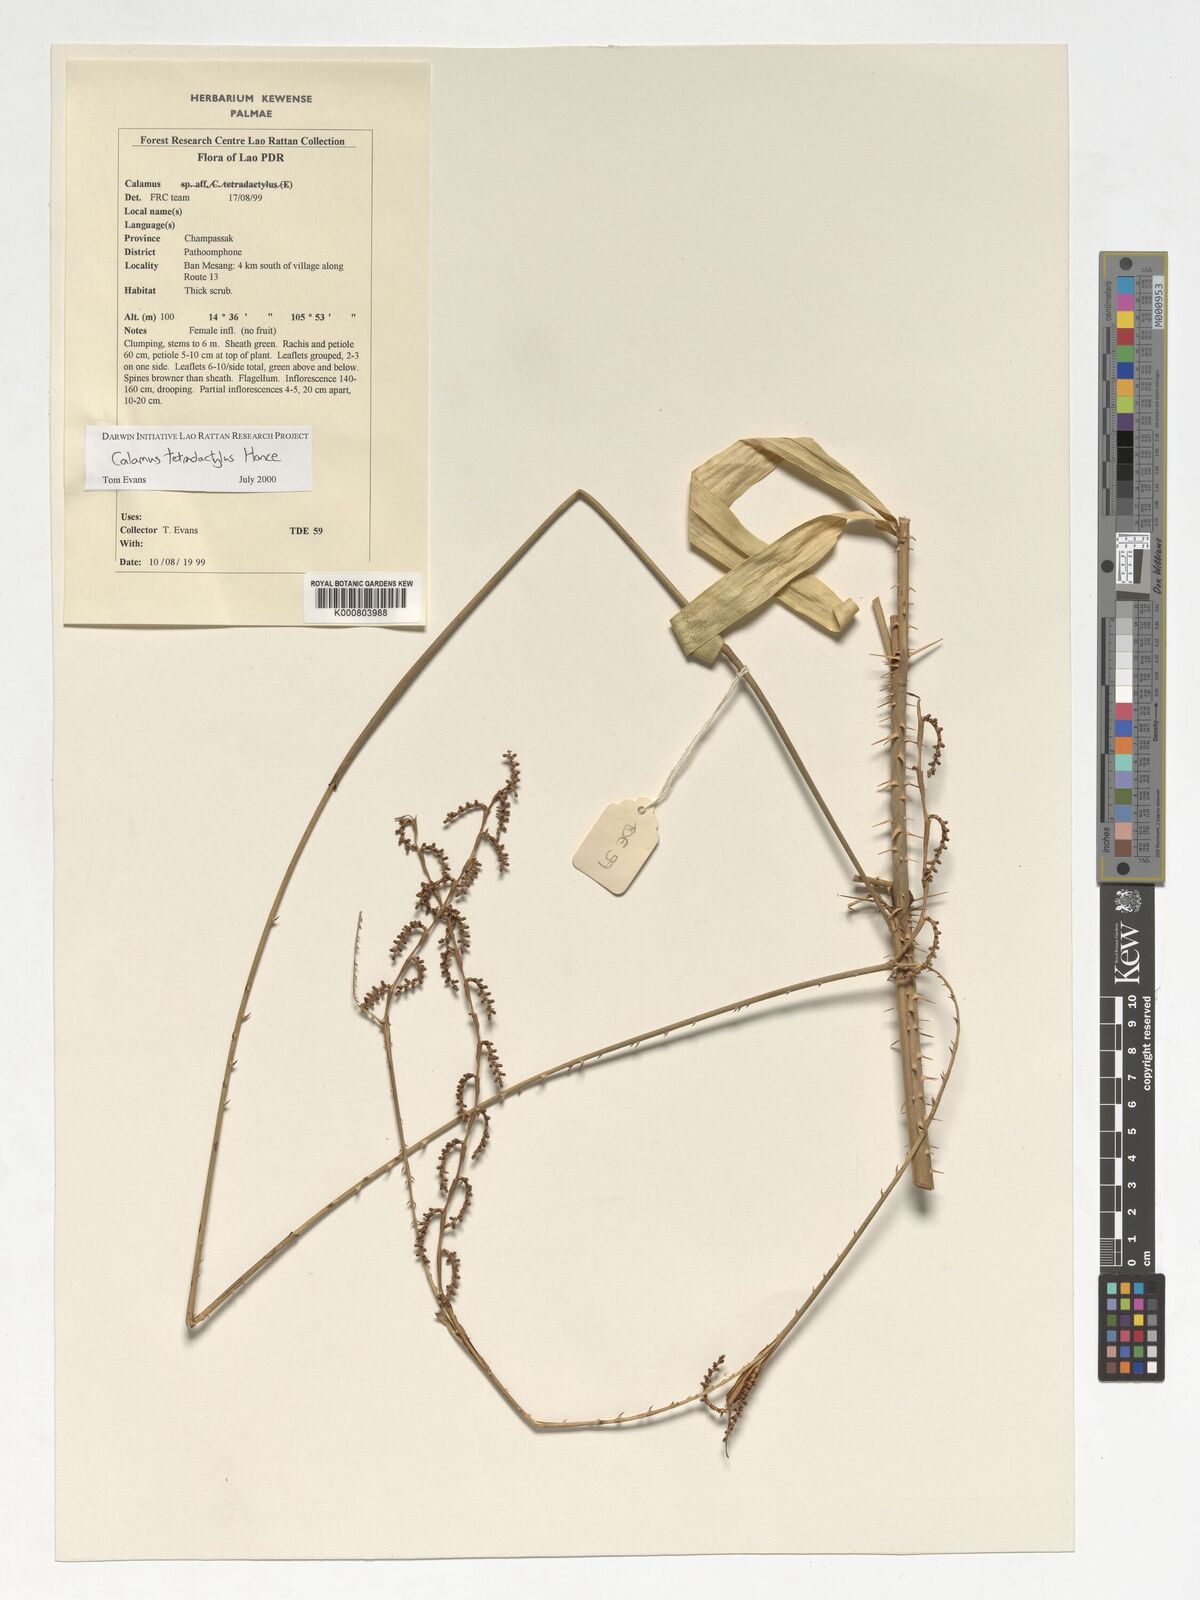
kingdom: Plantae
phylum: Tracheophyta
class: Liliopsida
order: Arecales
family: Arecaceae
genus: Calamus
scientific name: Calamus tetradactylus
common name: White rattan
